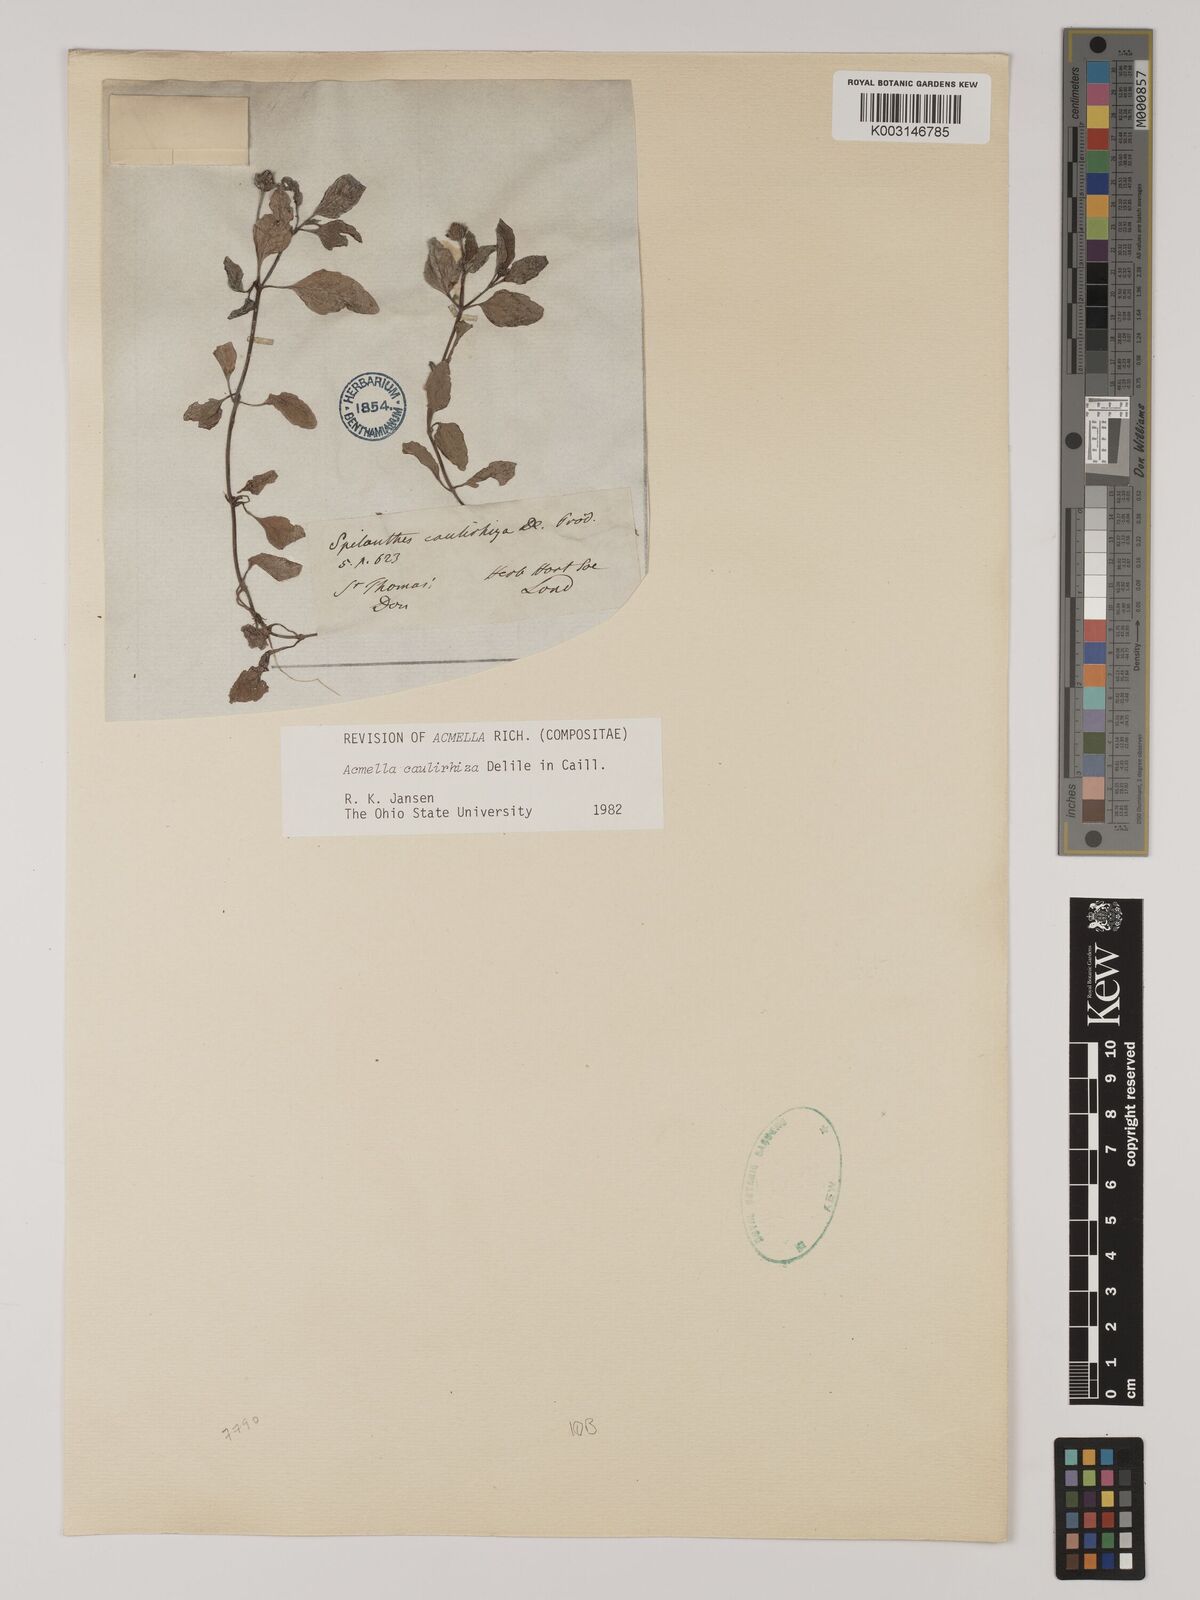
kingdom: Plantae
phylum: Tracheophyta
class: Magnoliopsida
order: Asterales
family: Asteraceae
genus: Acmella
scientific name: Acmella caulirhiza
